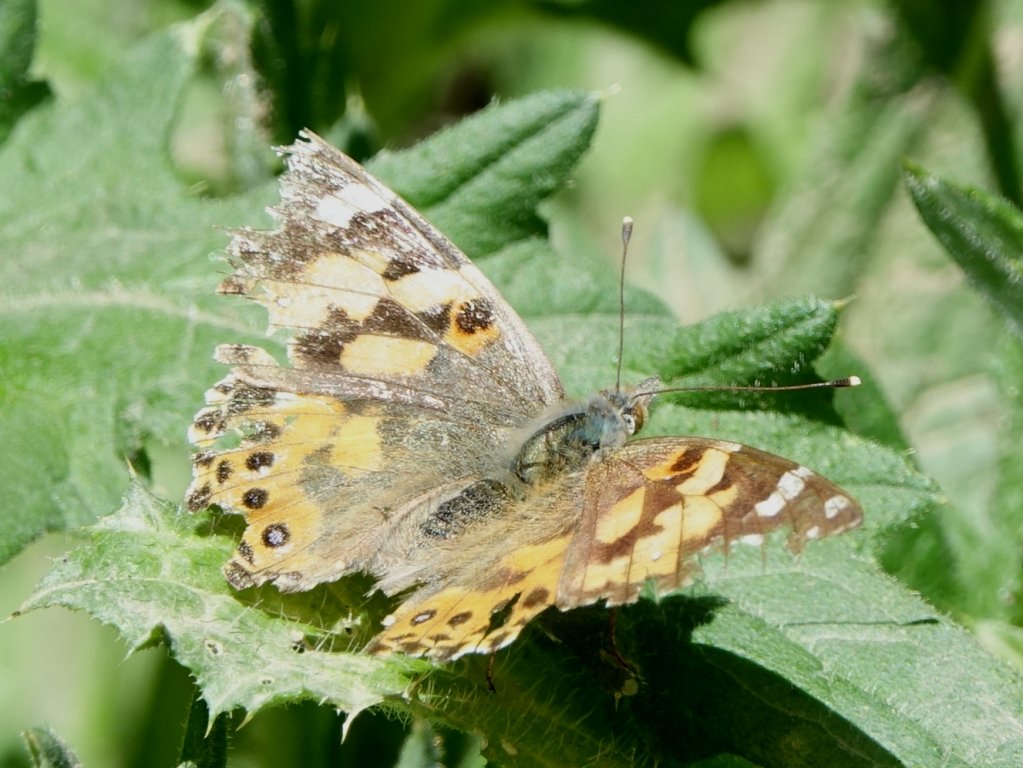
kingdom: Animalia
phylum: Arthropoda
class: Insecta
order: Lepidoptera
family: Nymphalidae
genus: Vanessa
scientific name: Vanessa cardui
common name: Painted Lady
